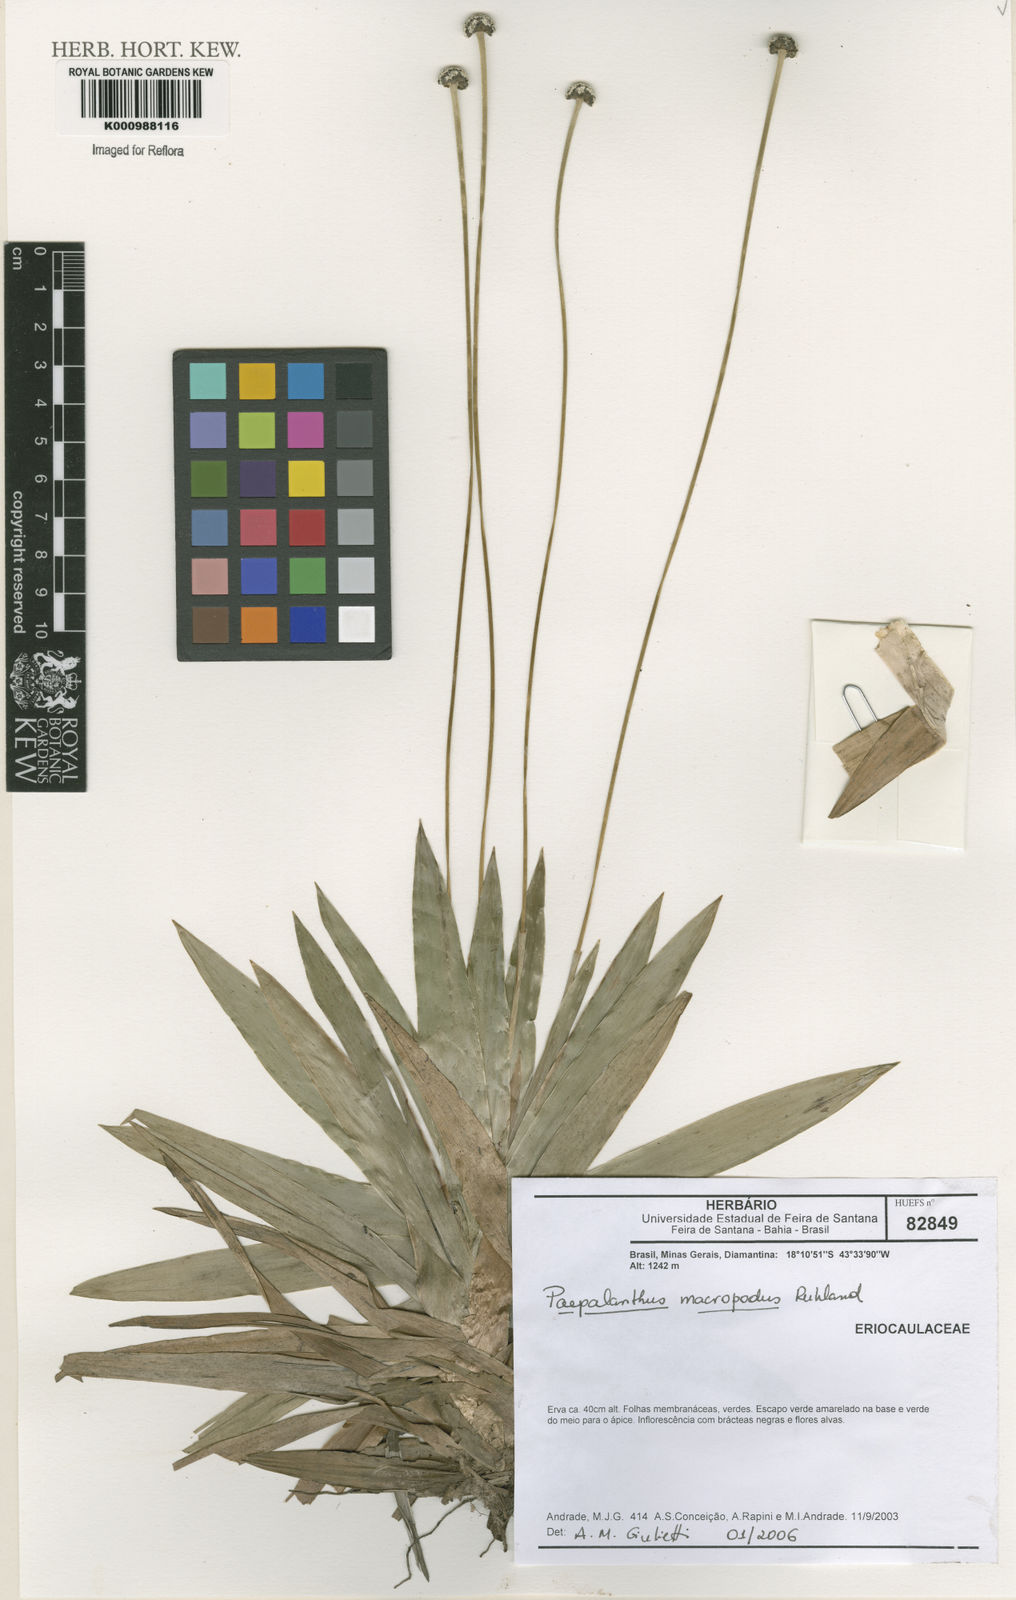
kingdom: Plantae
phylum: Tracheophyta
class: Liliopsida
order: Poales
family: Eriocaulaceae
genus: Paepalanthus
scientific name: Paepalanthus macropodus
